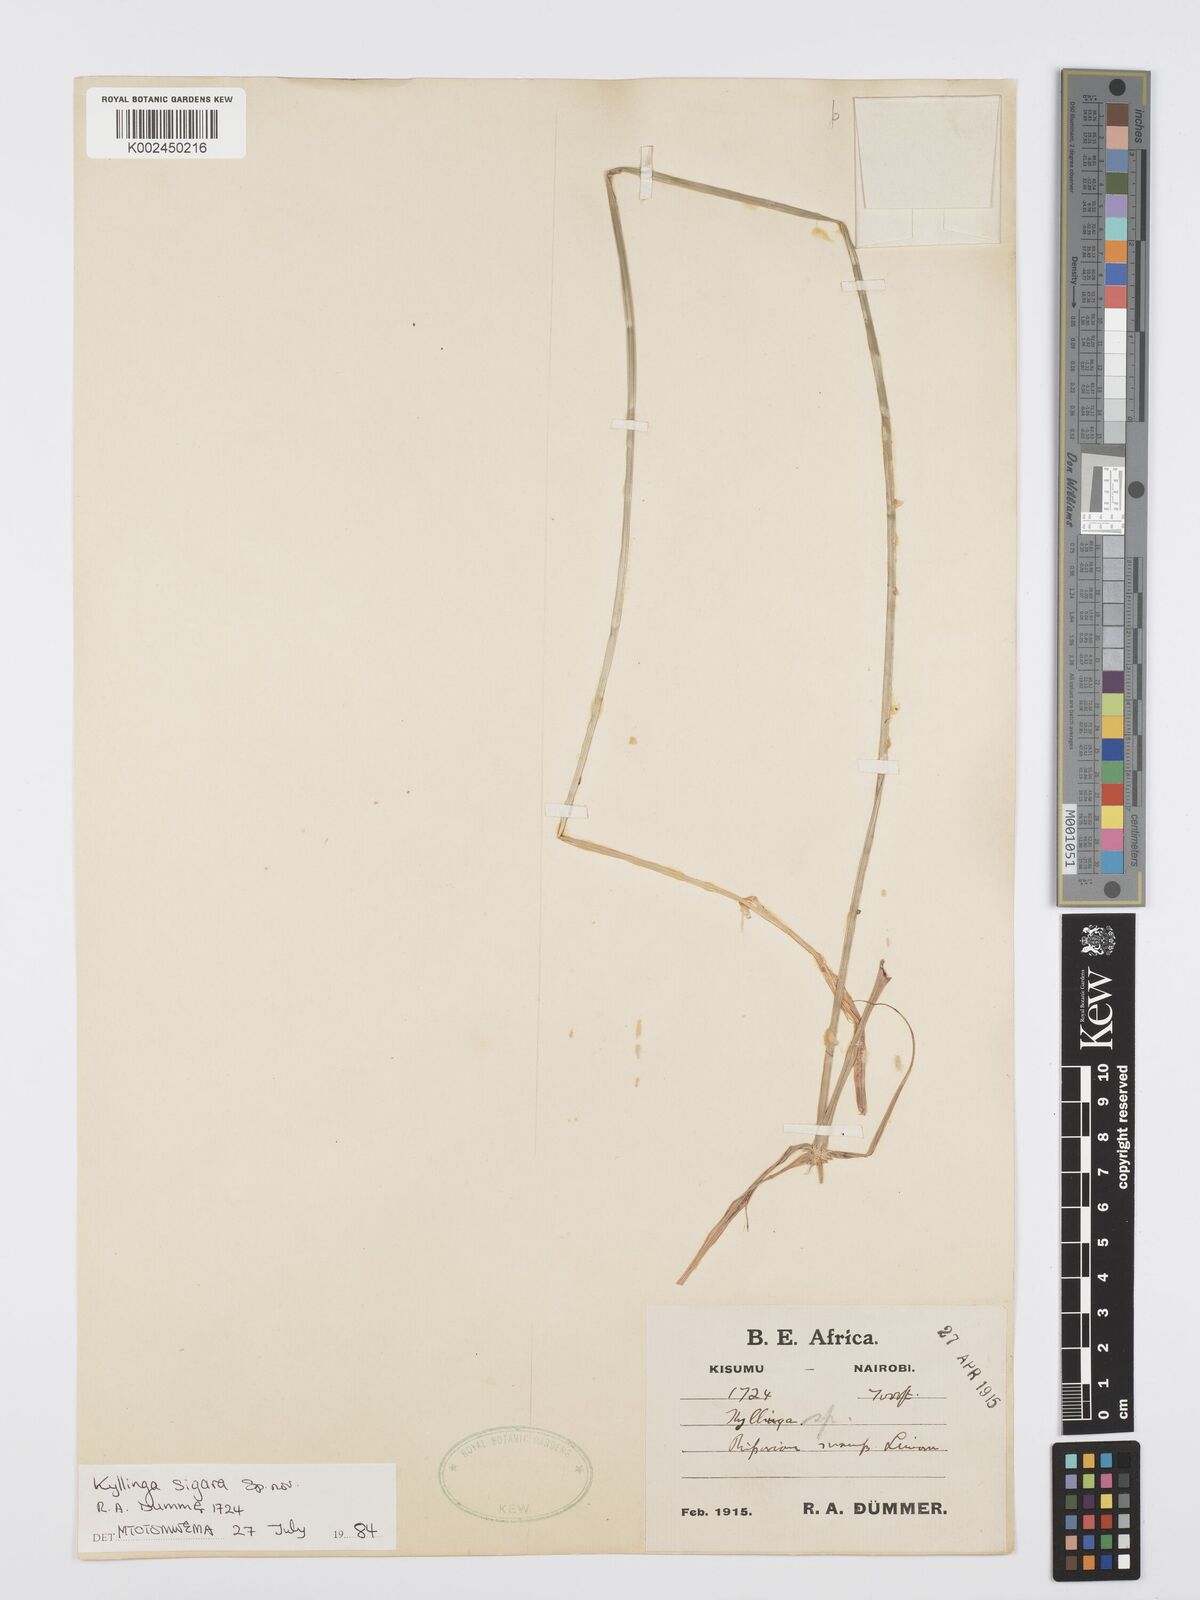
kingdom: Plantae
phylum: Tracheophyta
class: Liliopsida
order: Poales
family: Cyperaceae
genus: Cyperus
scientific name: Cyperus
